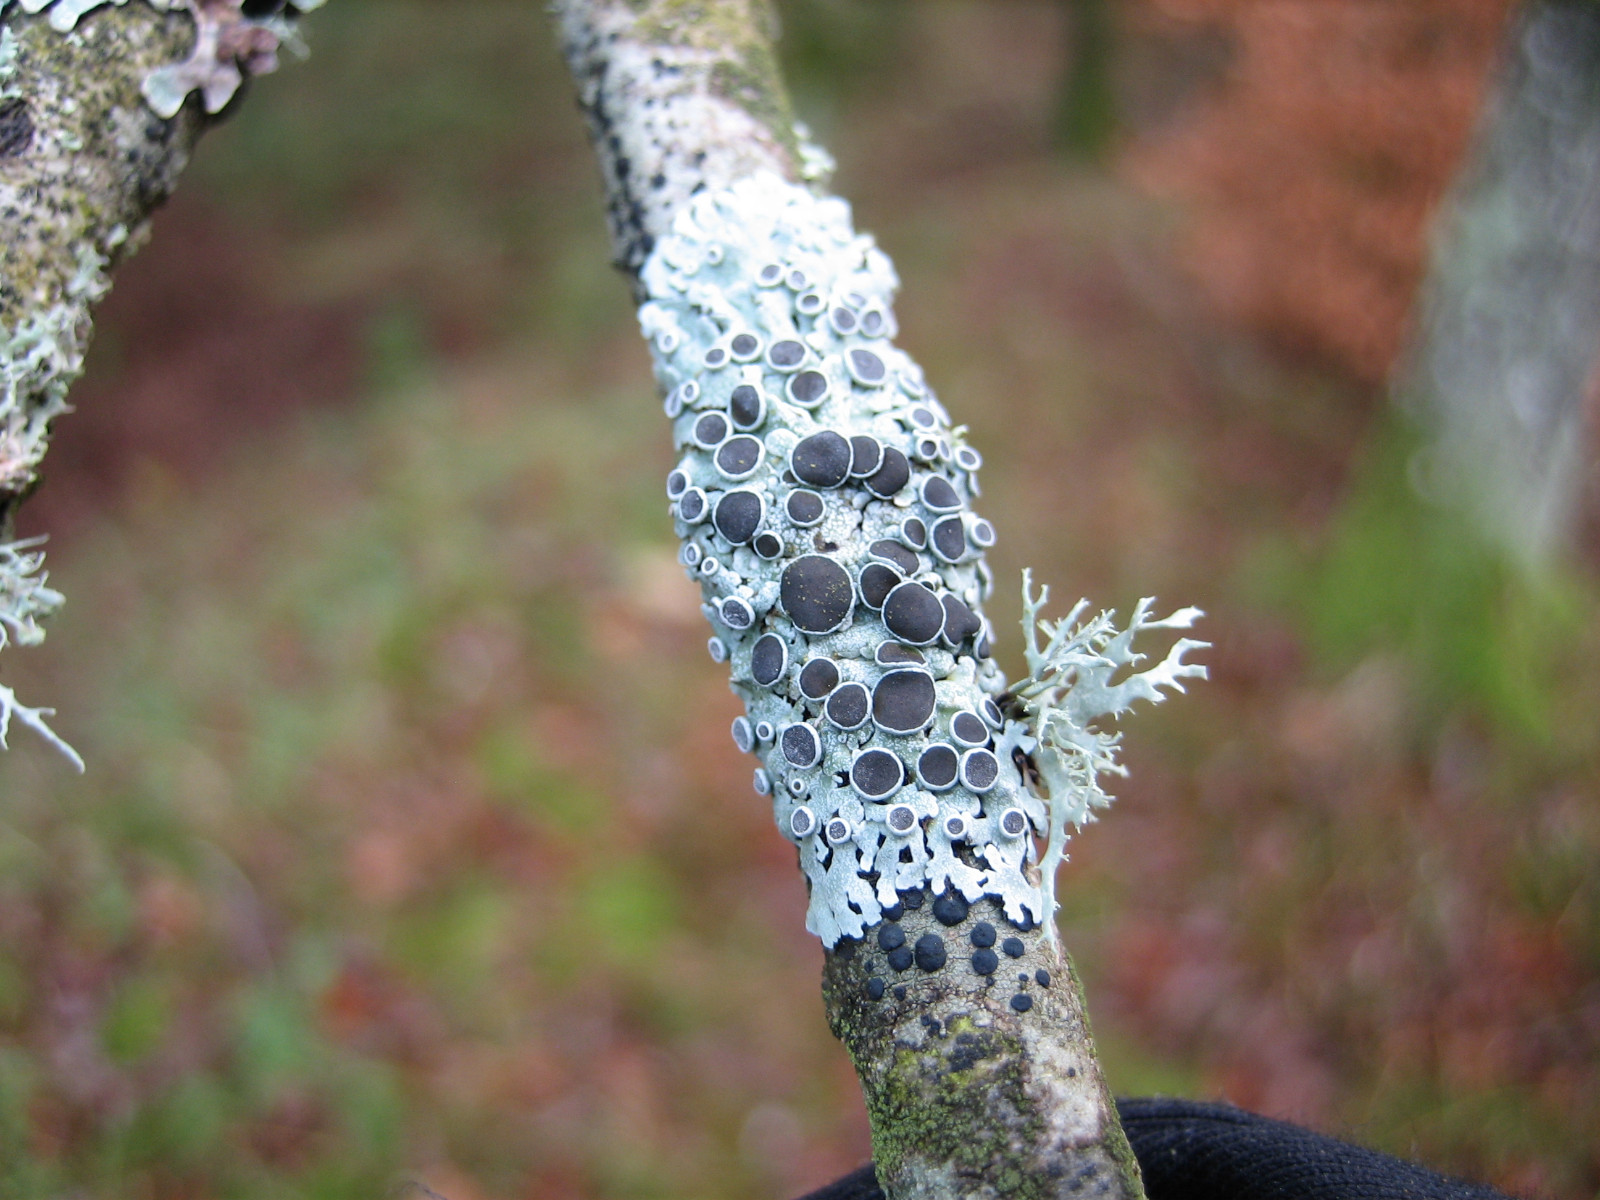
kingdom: Fungi
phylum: Ascomycota
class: Lecanoromycetes
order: Caliciales
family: Physciaceae
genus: Physcia
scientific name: Physcia aipolia
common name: hvidprikket rosetlav
